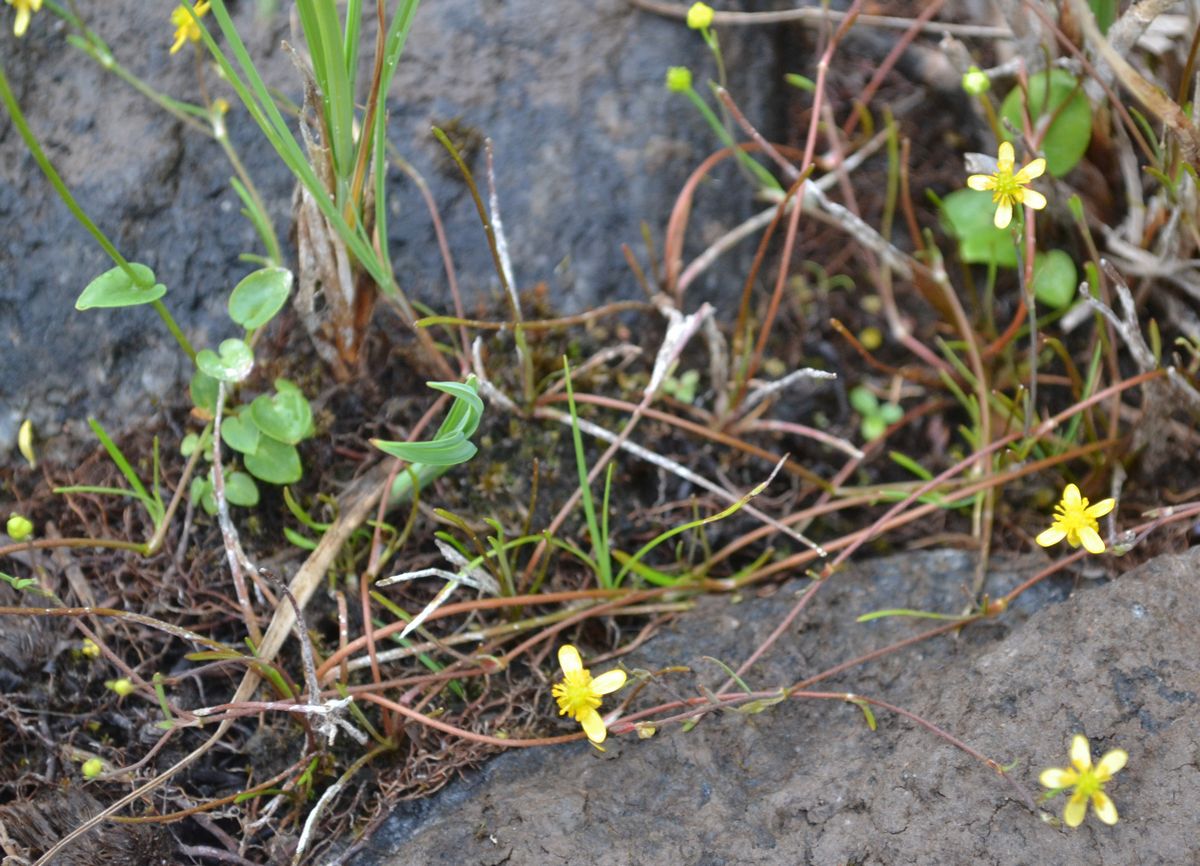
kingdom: Plantae
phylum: Tracheophyta
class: Magnoliopsida
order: Ranunculales
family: Ranunculaceae
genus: Ranunculus
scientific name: Ranunculus reptans
